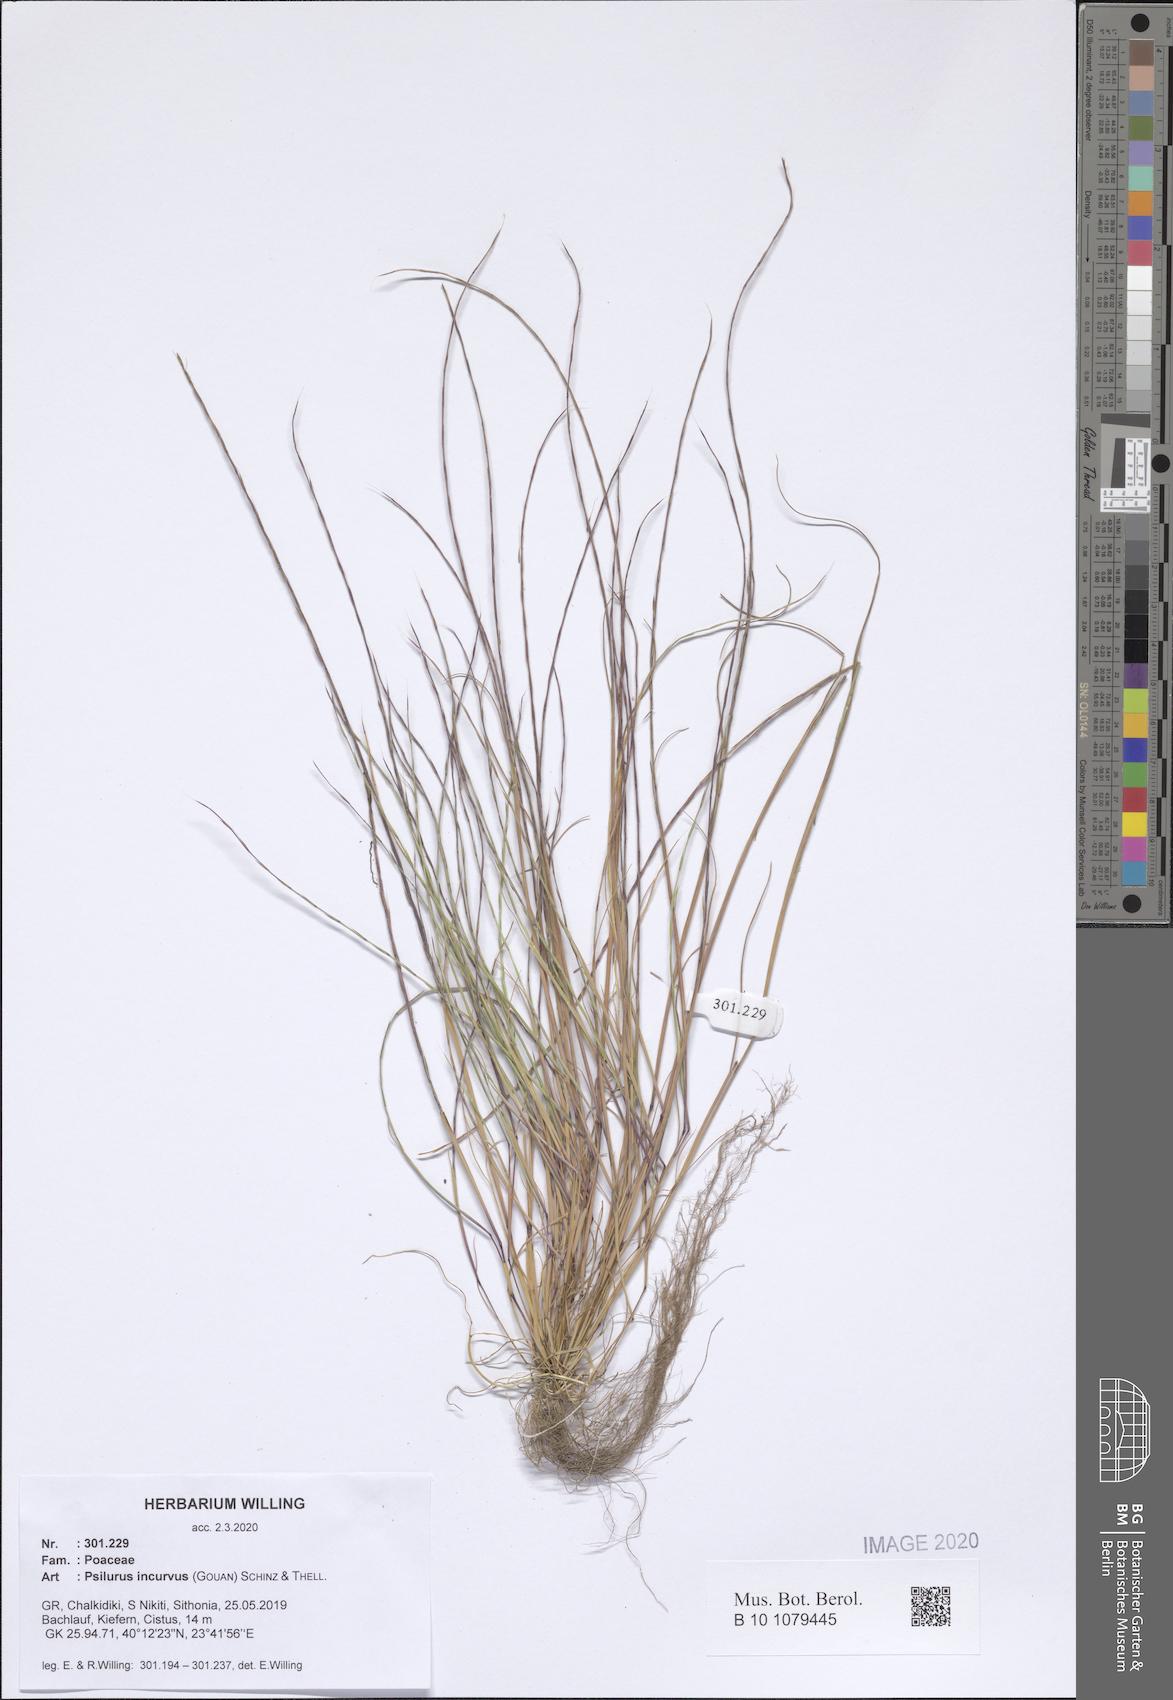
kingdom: Plantae
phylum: Tracheophyta
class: Liliopsida
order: Poales
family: Poaceae
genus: Festuca
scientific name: Festuca incurva
